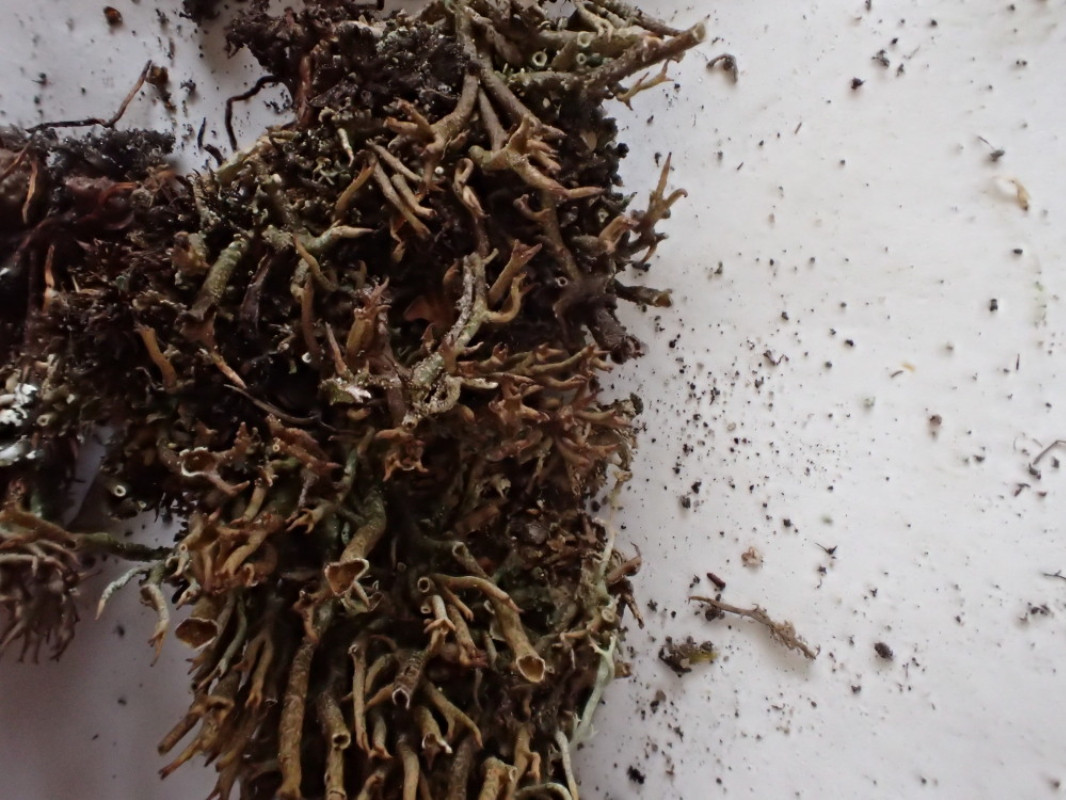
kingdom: Fungi
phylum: Ascomycota
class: Lecanoromycetes
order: Lecanorales
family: Cladoniaceae
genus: Cladonia
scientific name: Cladonia crispata
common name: takket bægerlav
